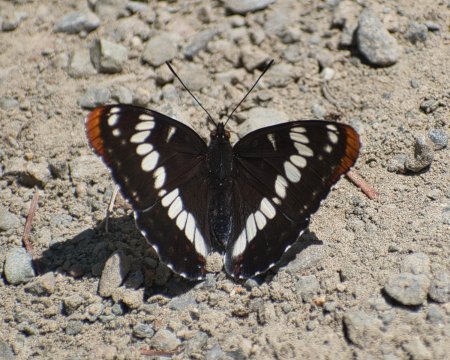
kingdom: Animalia
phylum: Arthropoda
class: Insecta
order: Lepidoptera
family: Nymphalidae
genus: Limenitis
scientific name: Limenitis lorquini
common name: Lorquin's Admiral
